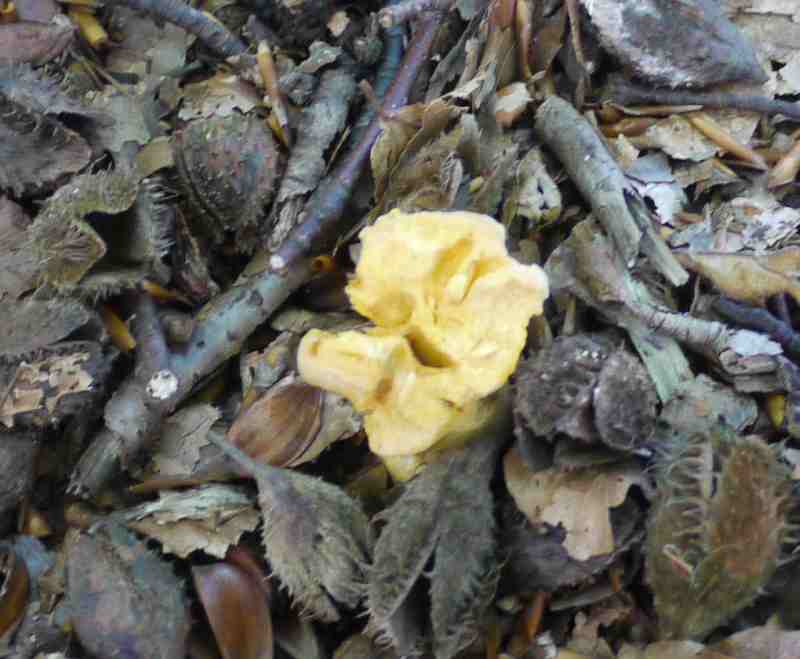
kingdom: Fungi
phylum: Basidiomycota
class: Agaricomycetes
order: Cantharellales
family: Hydnaceae
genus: Cantharellus
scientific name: Cantharellus pallens
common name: bleg kantarel
